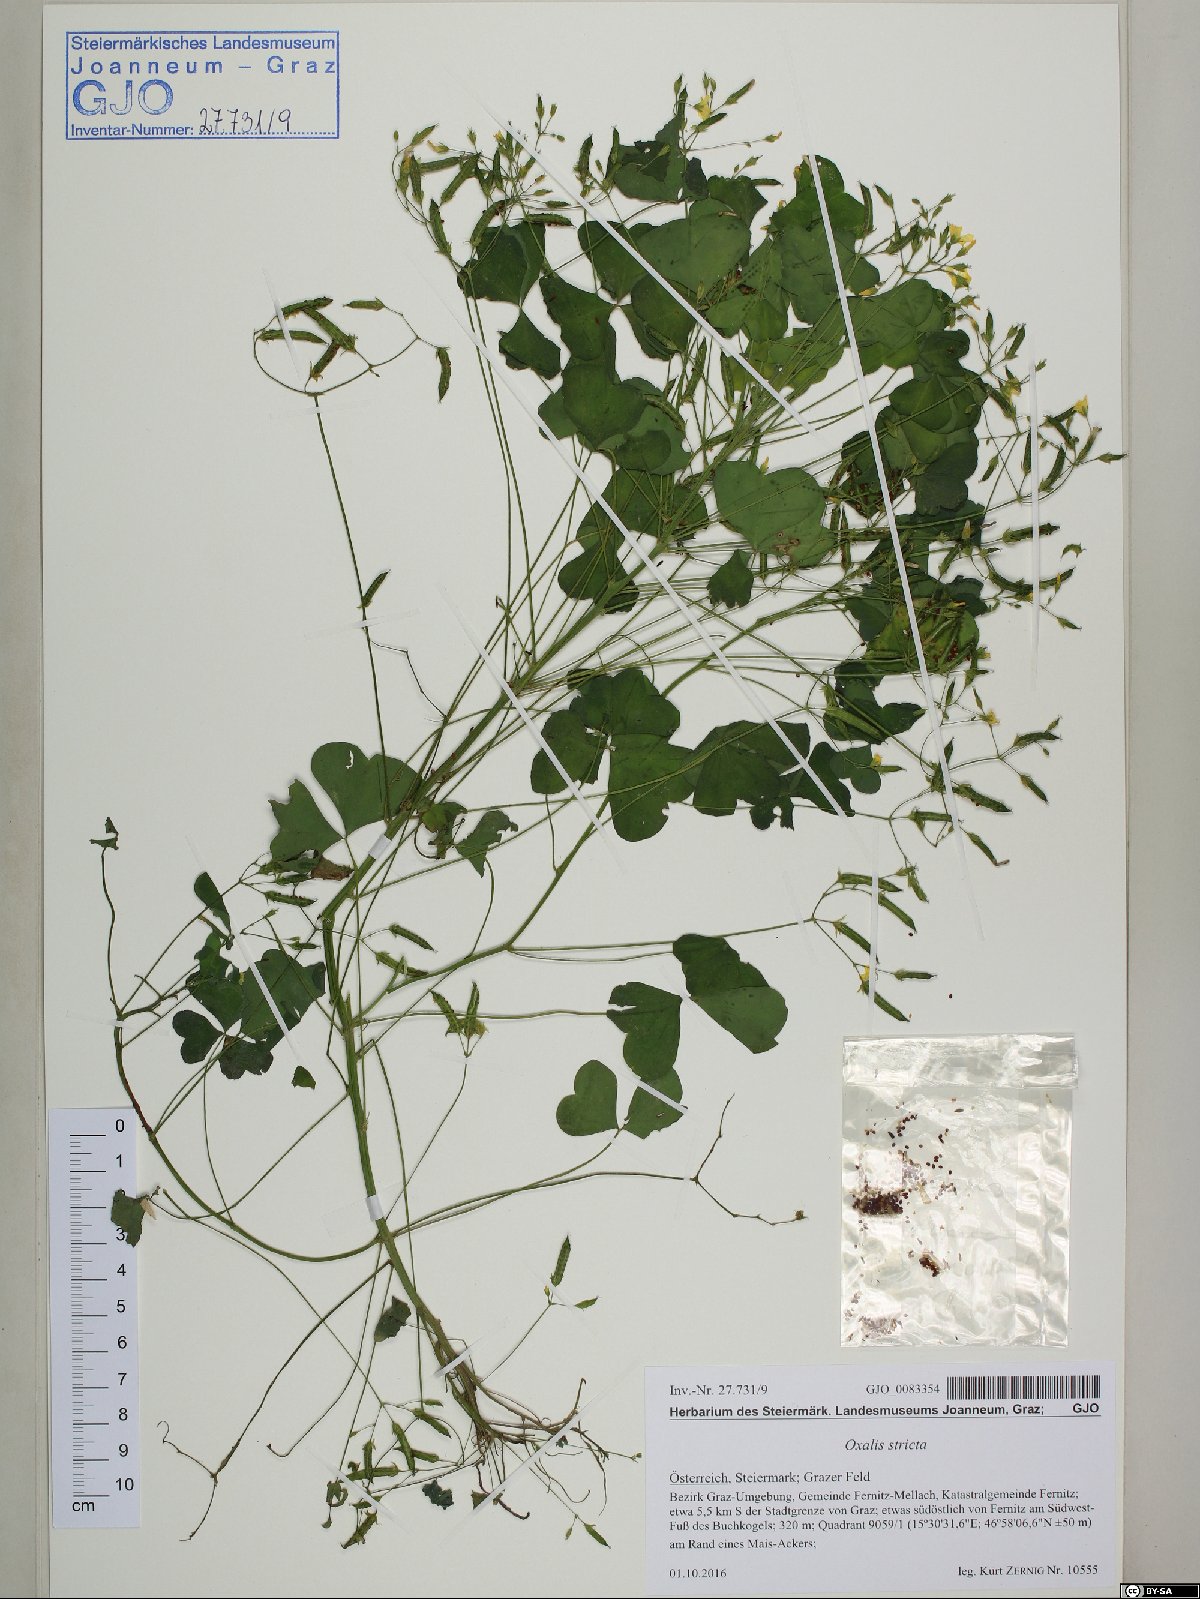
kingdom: Plantae
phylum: Tracheophyta
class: Magnoliopsida
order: Oxalidales
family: Oxalidaceae
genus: Oxalis
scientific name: Oxalis stricta
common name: Upright yellow-sorrel
